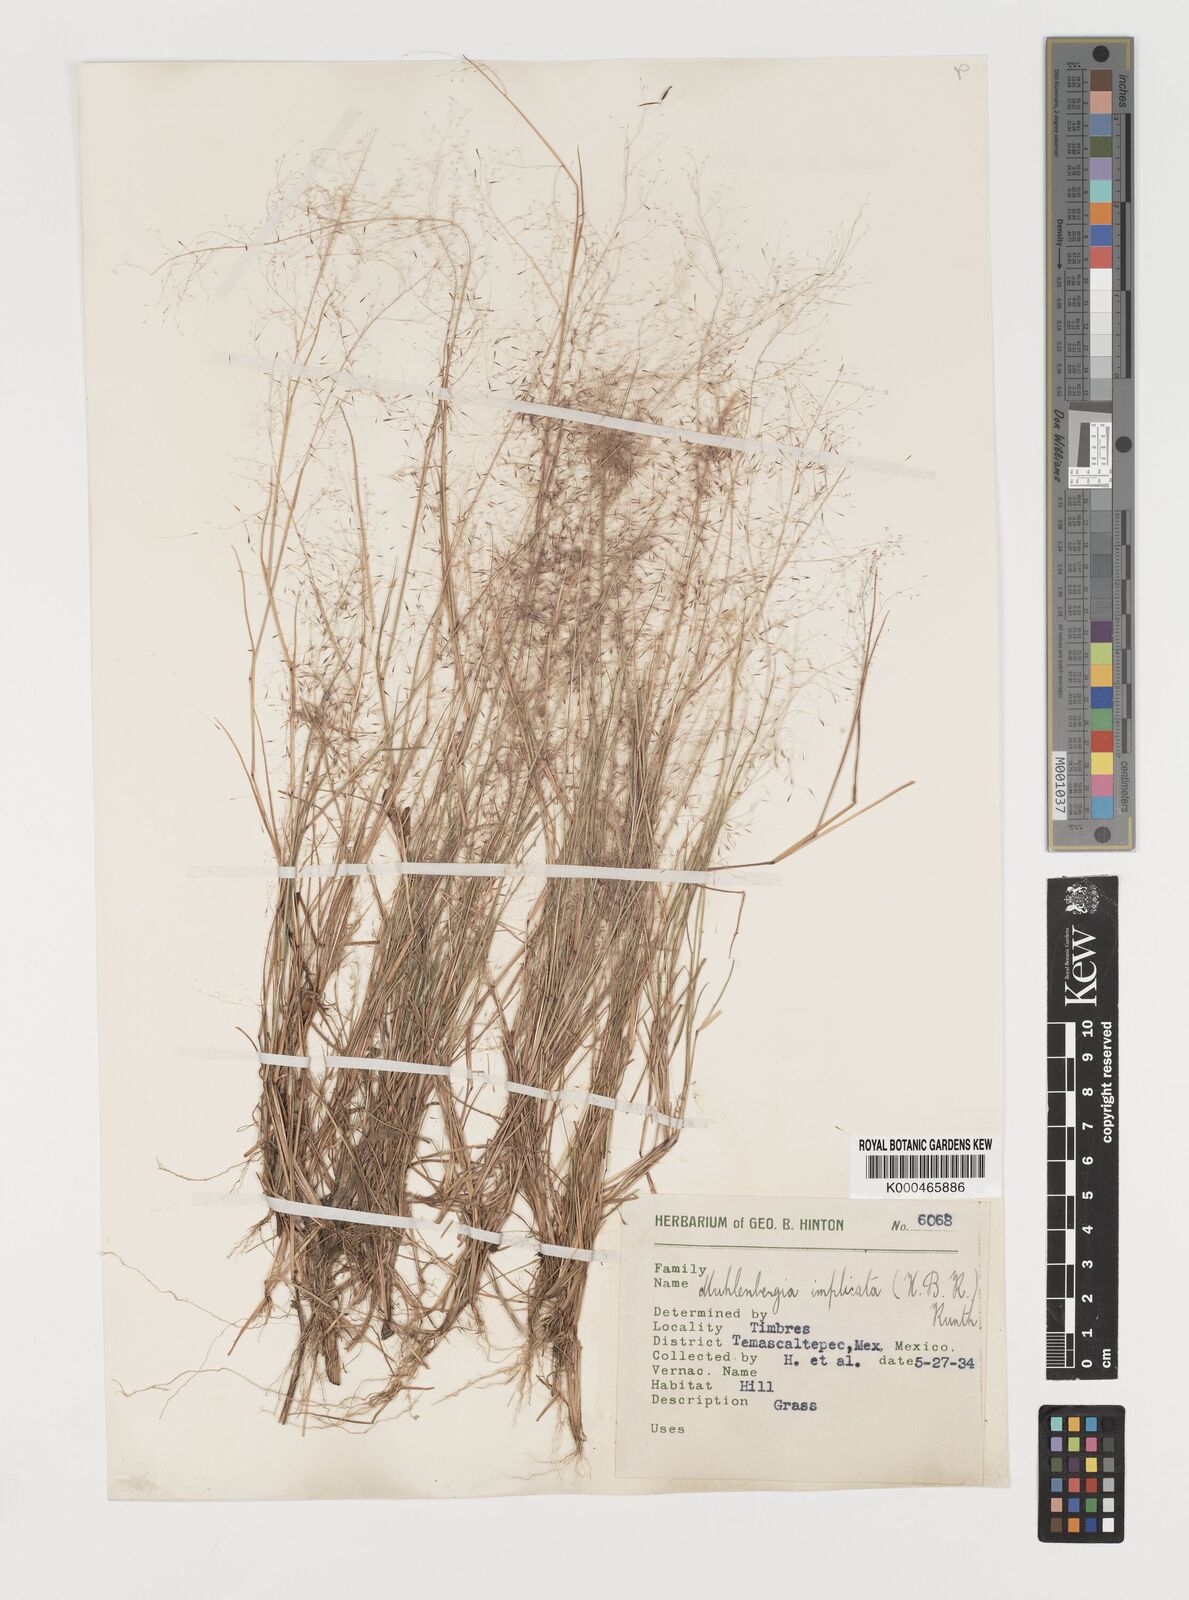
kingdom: Plantae
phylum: Tracheophyta
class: Liliopsida
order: Poales
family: Poaceae
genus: Muhlenbergia
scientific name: Muhlenbergia implicata
